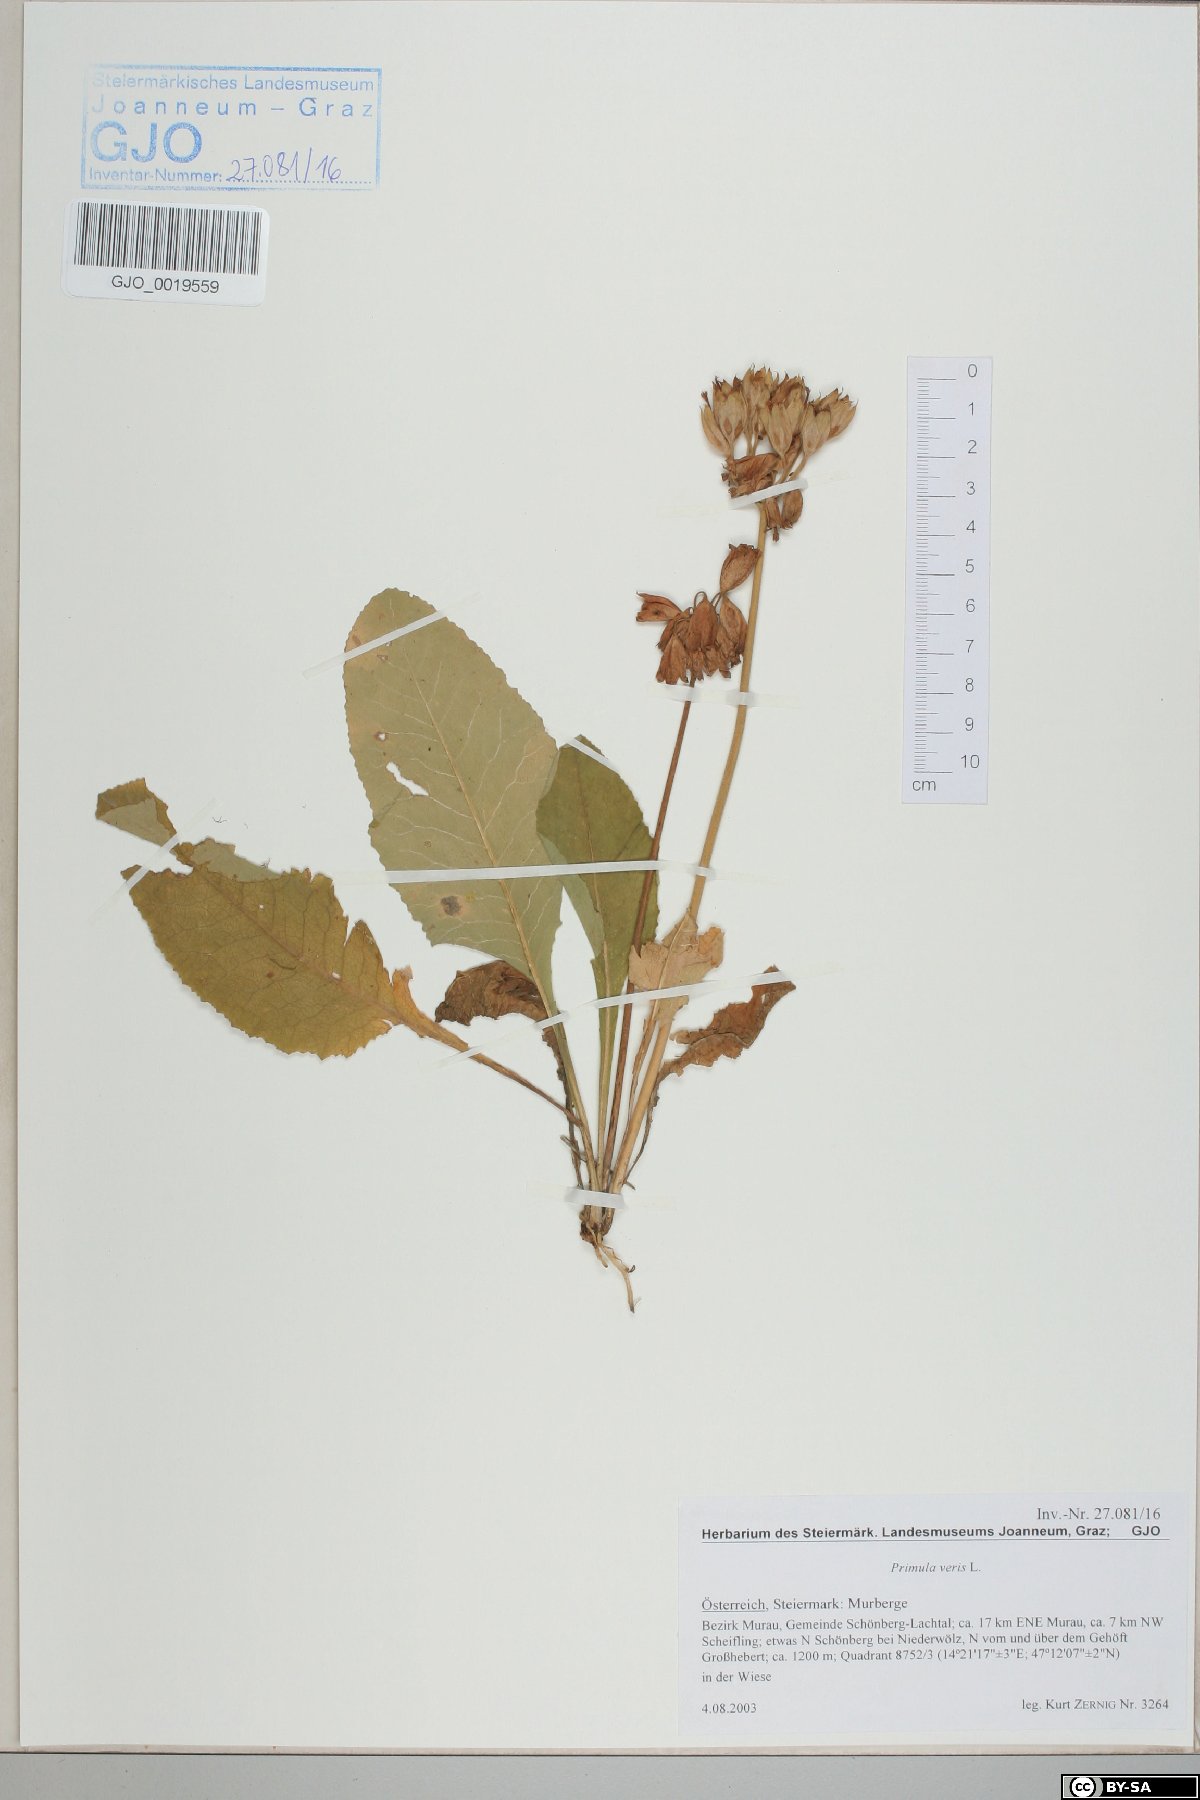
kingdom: Plantae
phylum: Tracheophyta
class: Magnoliopsida
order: Ericales
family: Primulaceae
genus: Primula
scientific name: Primula veris
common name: Cowslip
